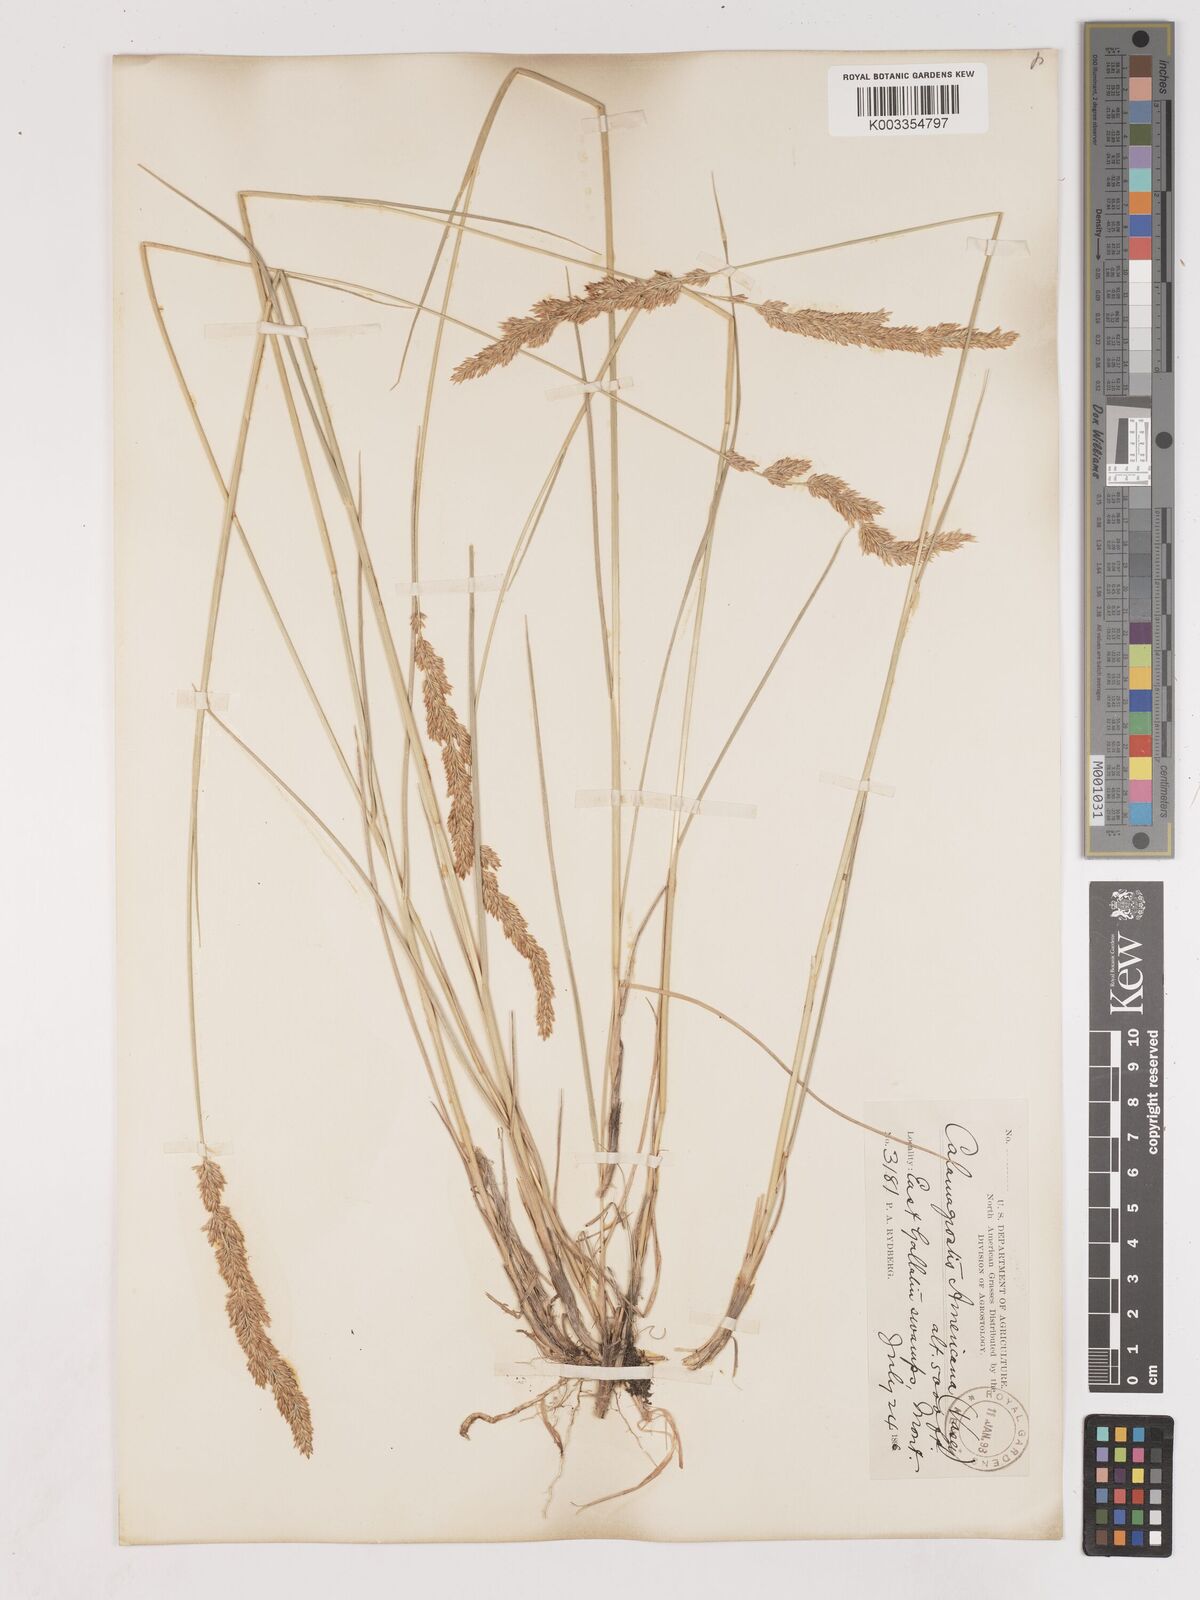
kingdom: Plantae
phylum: Tracheophyta
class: Liliopsida
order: Poales
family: Poaceae
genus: Cinnagrostis
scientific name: Cinnagrostis recta
